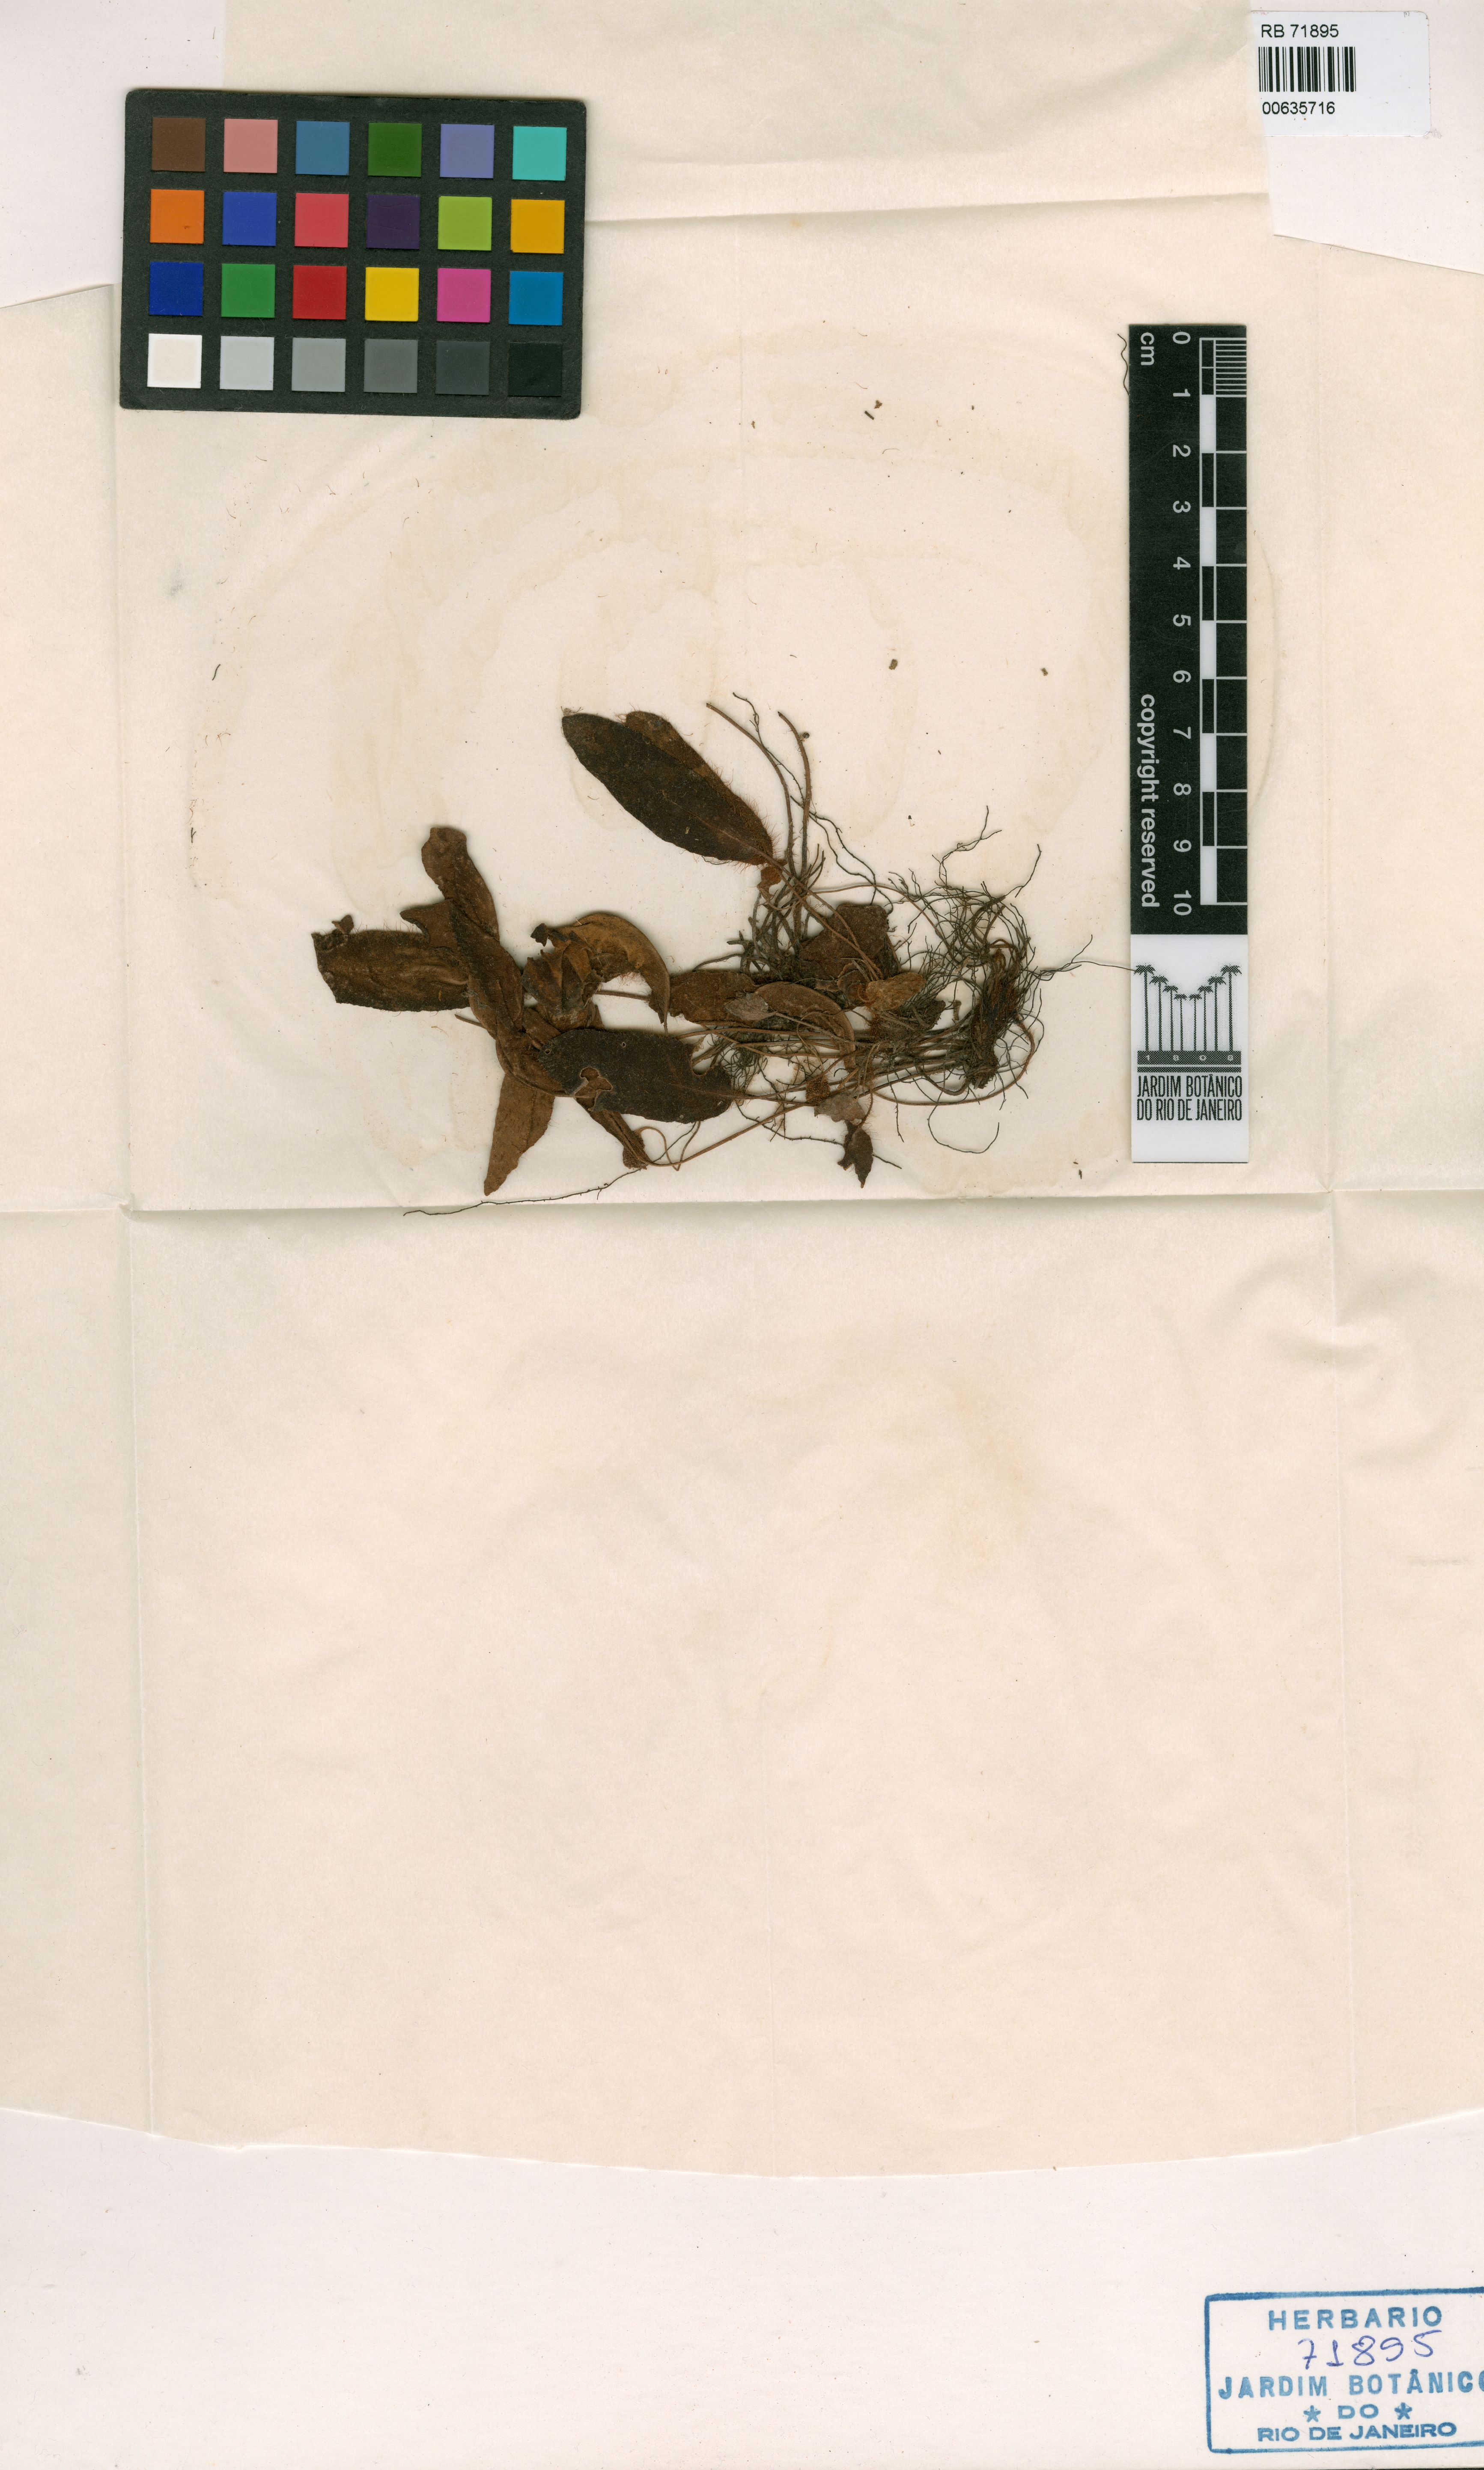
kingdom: Plantae
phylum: Tracheophyta
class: Polypodiopsida
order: Polypodiales
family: Dryopteridaceae
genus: Elaphoglossum
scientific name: Elaphoglossum apparicioi
